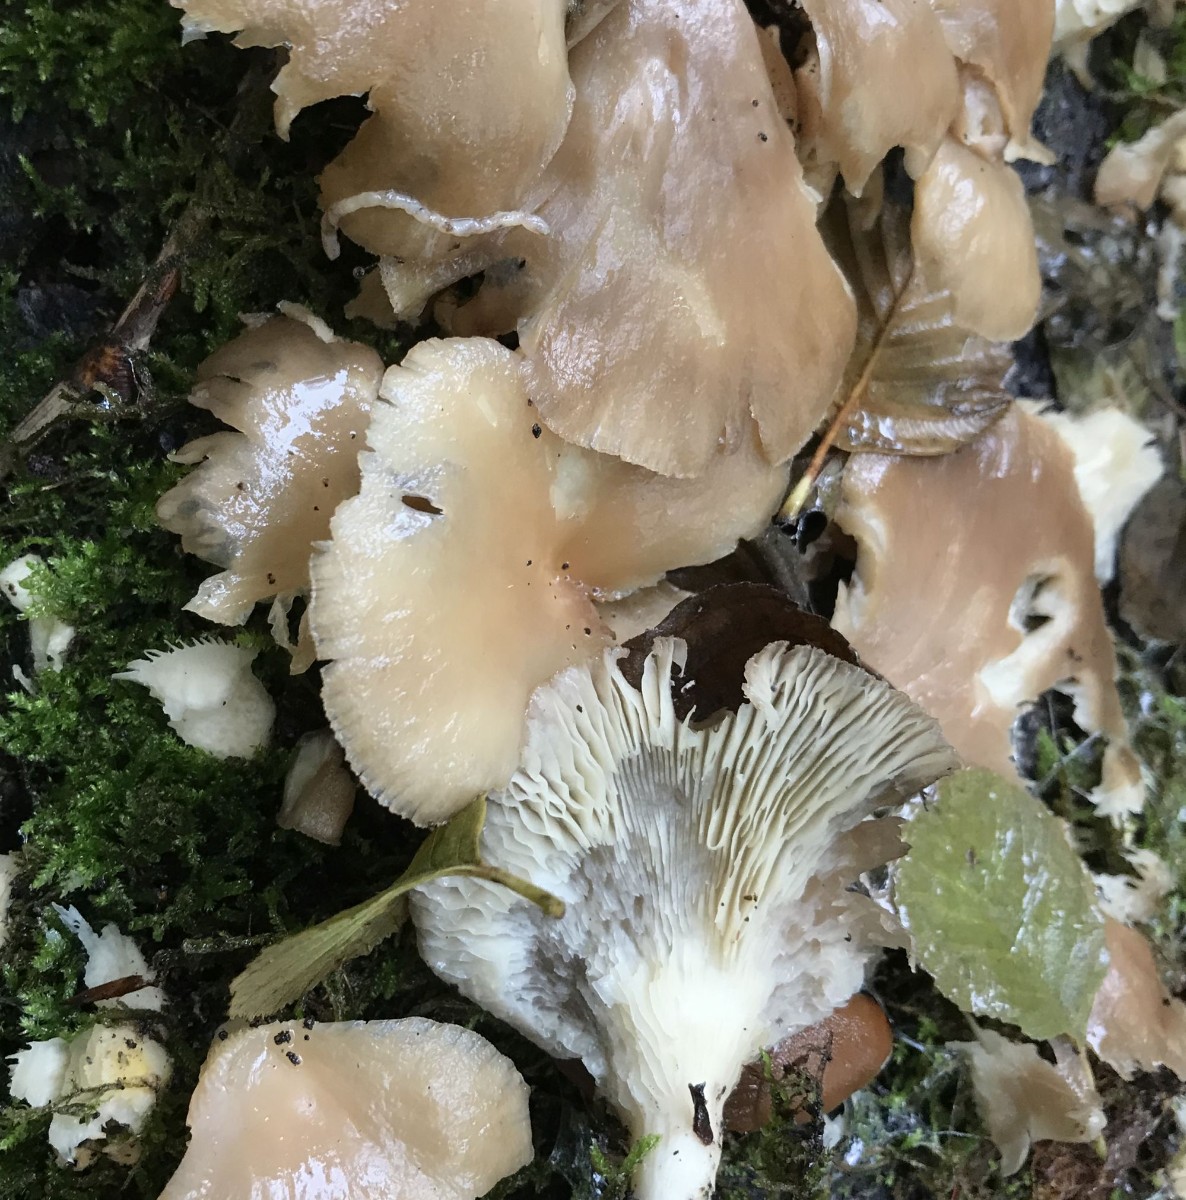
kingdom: Fungi
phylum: Basidiomycota
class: Agaricomycetes
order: Agaricales
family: Pleurotaceae
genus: Pleurotus
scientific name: Pleurotus pulmonarius
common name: sommer-østershat
